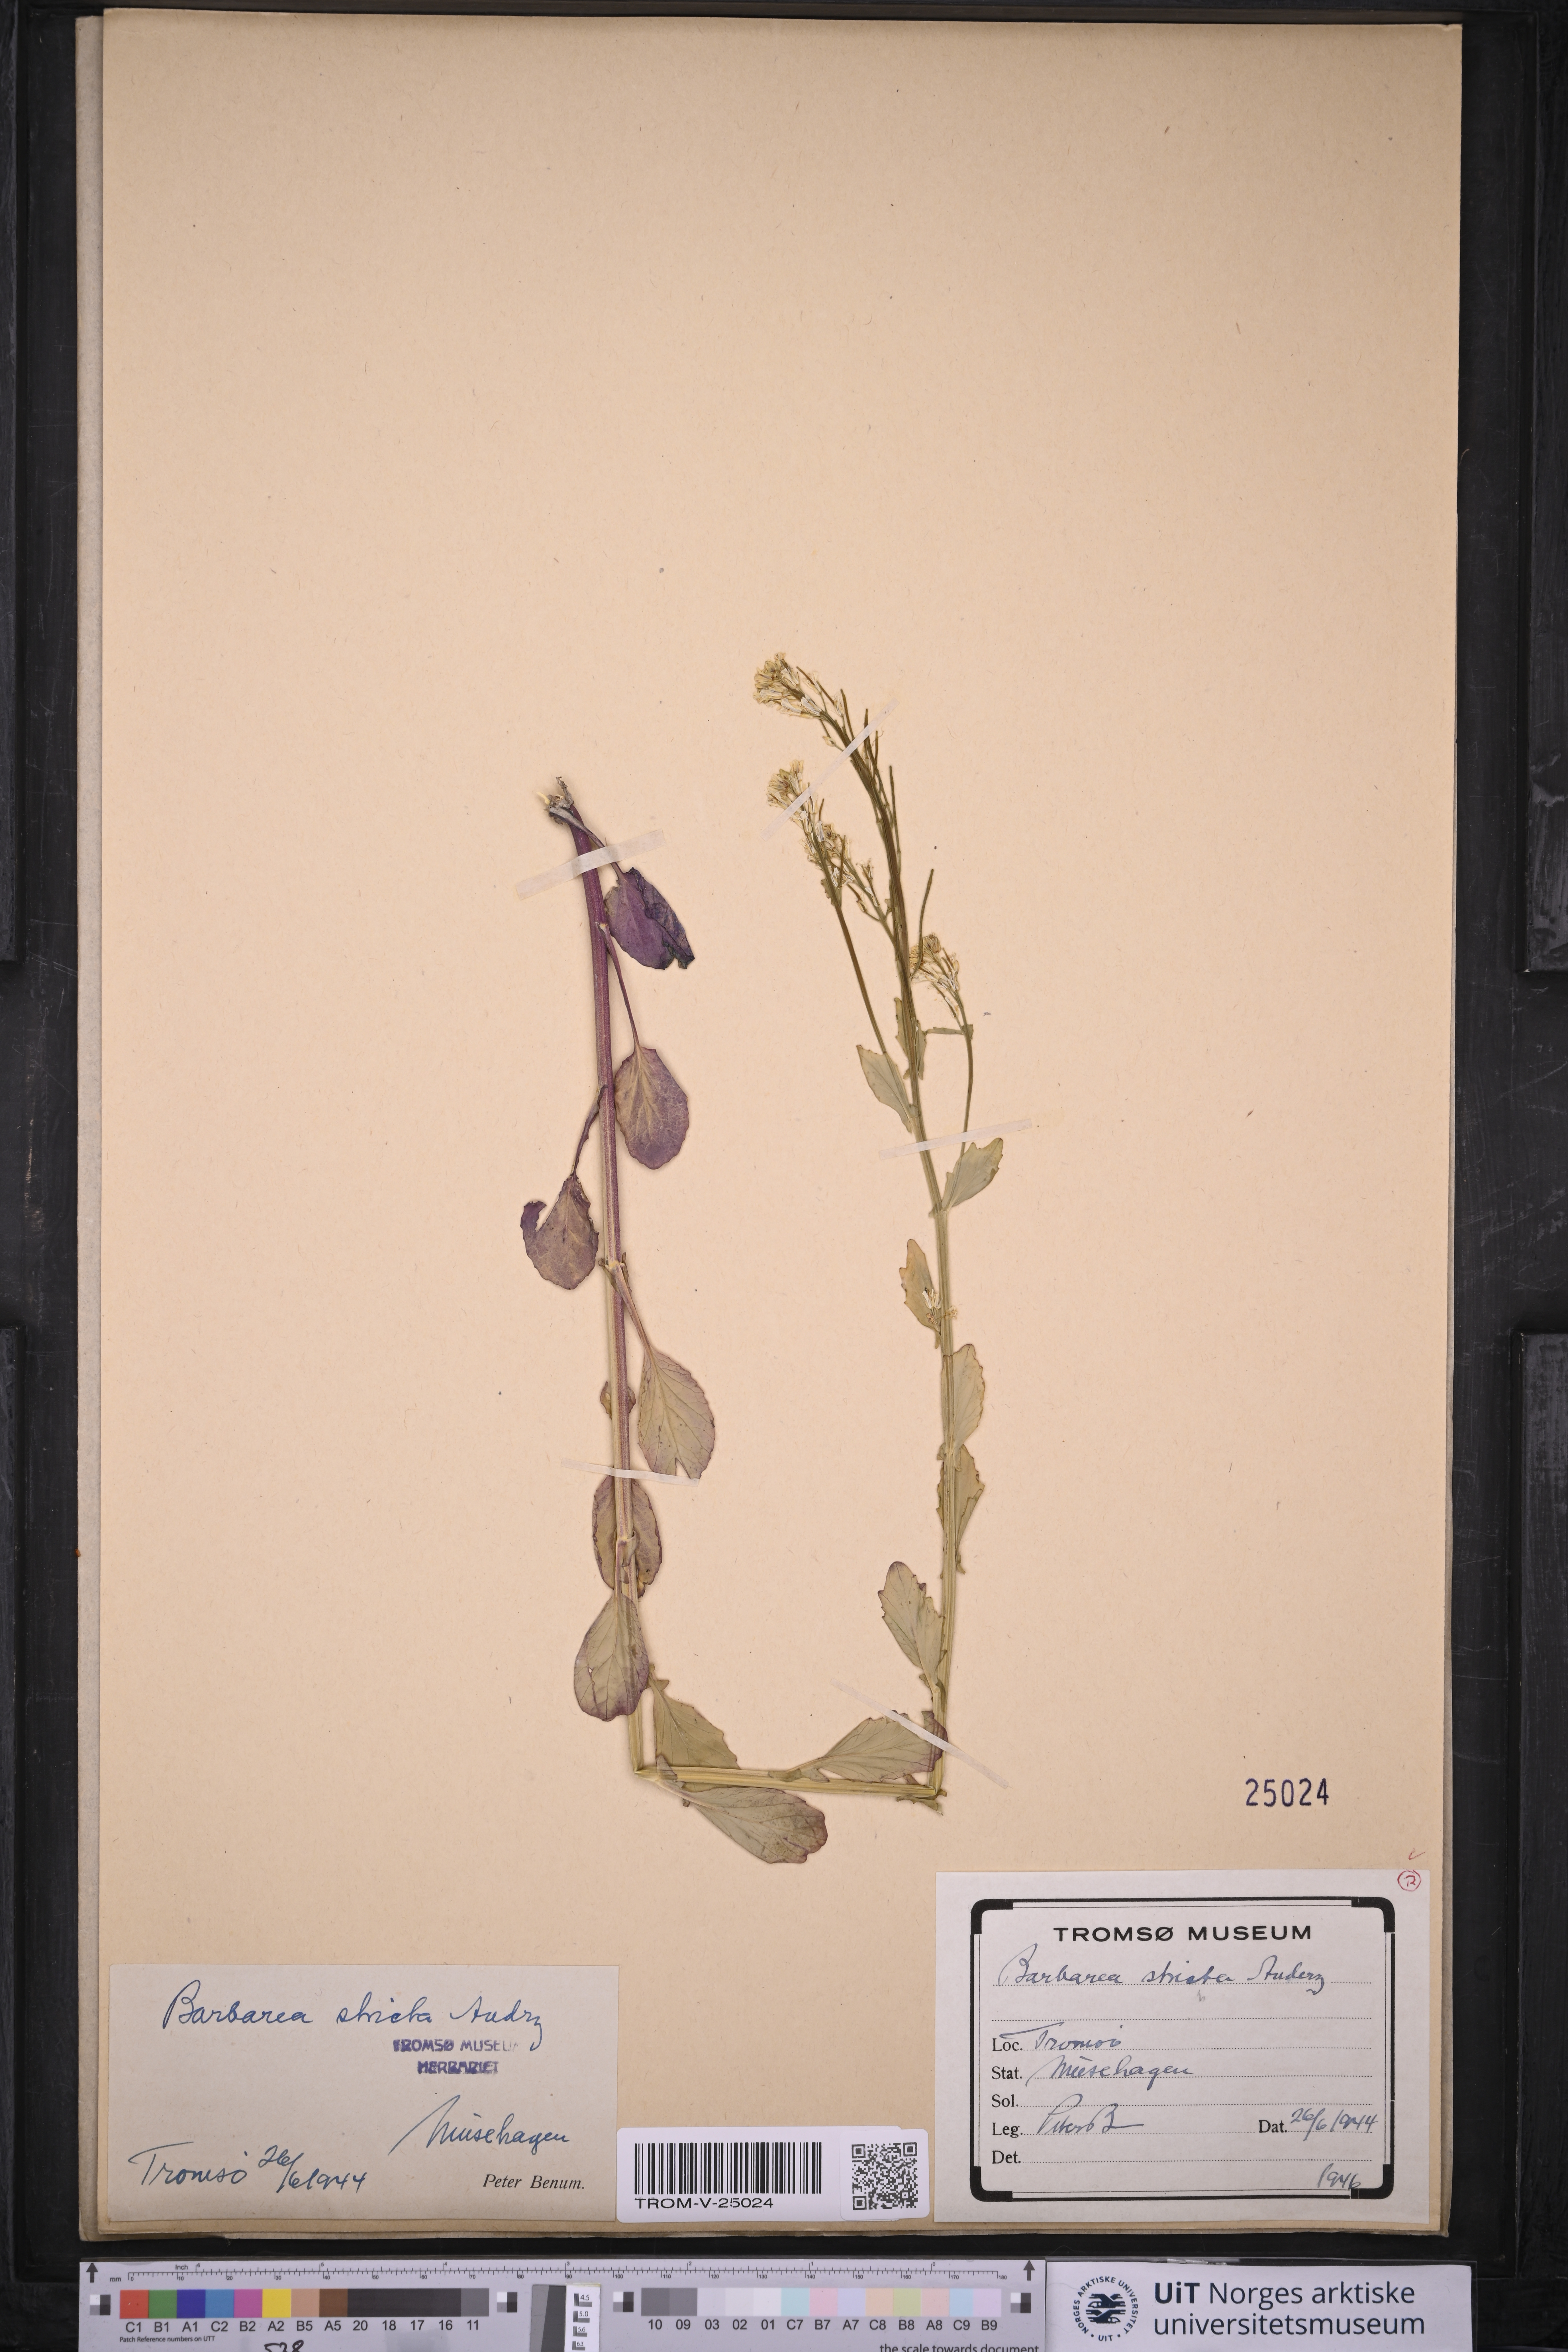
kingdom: Plantae
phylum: Tracheophyta
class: Magnoliopsida
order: Brassicales
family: Brassicaceae
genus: Barbarea
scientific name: Barbarea stricta
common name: Small-flowered winter-cress
